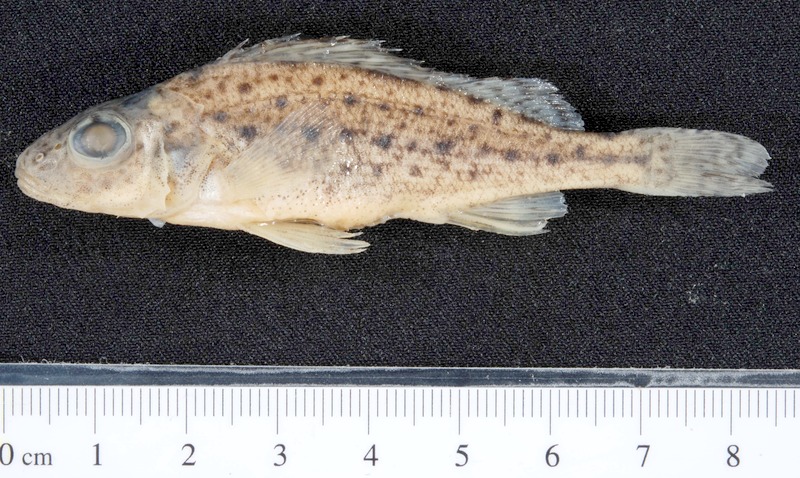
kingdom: Animalia
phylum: Chordata
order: Perciformes
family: Percidae
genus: Gymnocephalus
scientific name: Gymnocephalus cernua
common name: Ruffe
